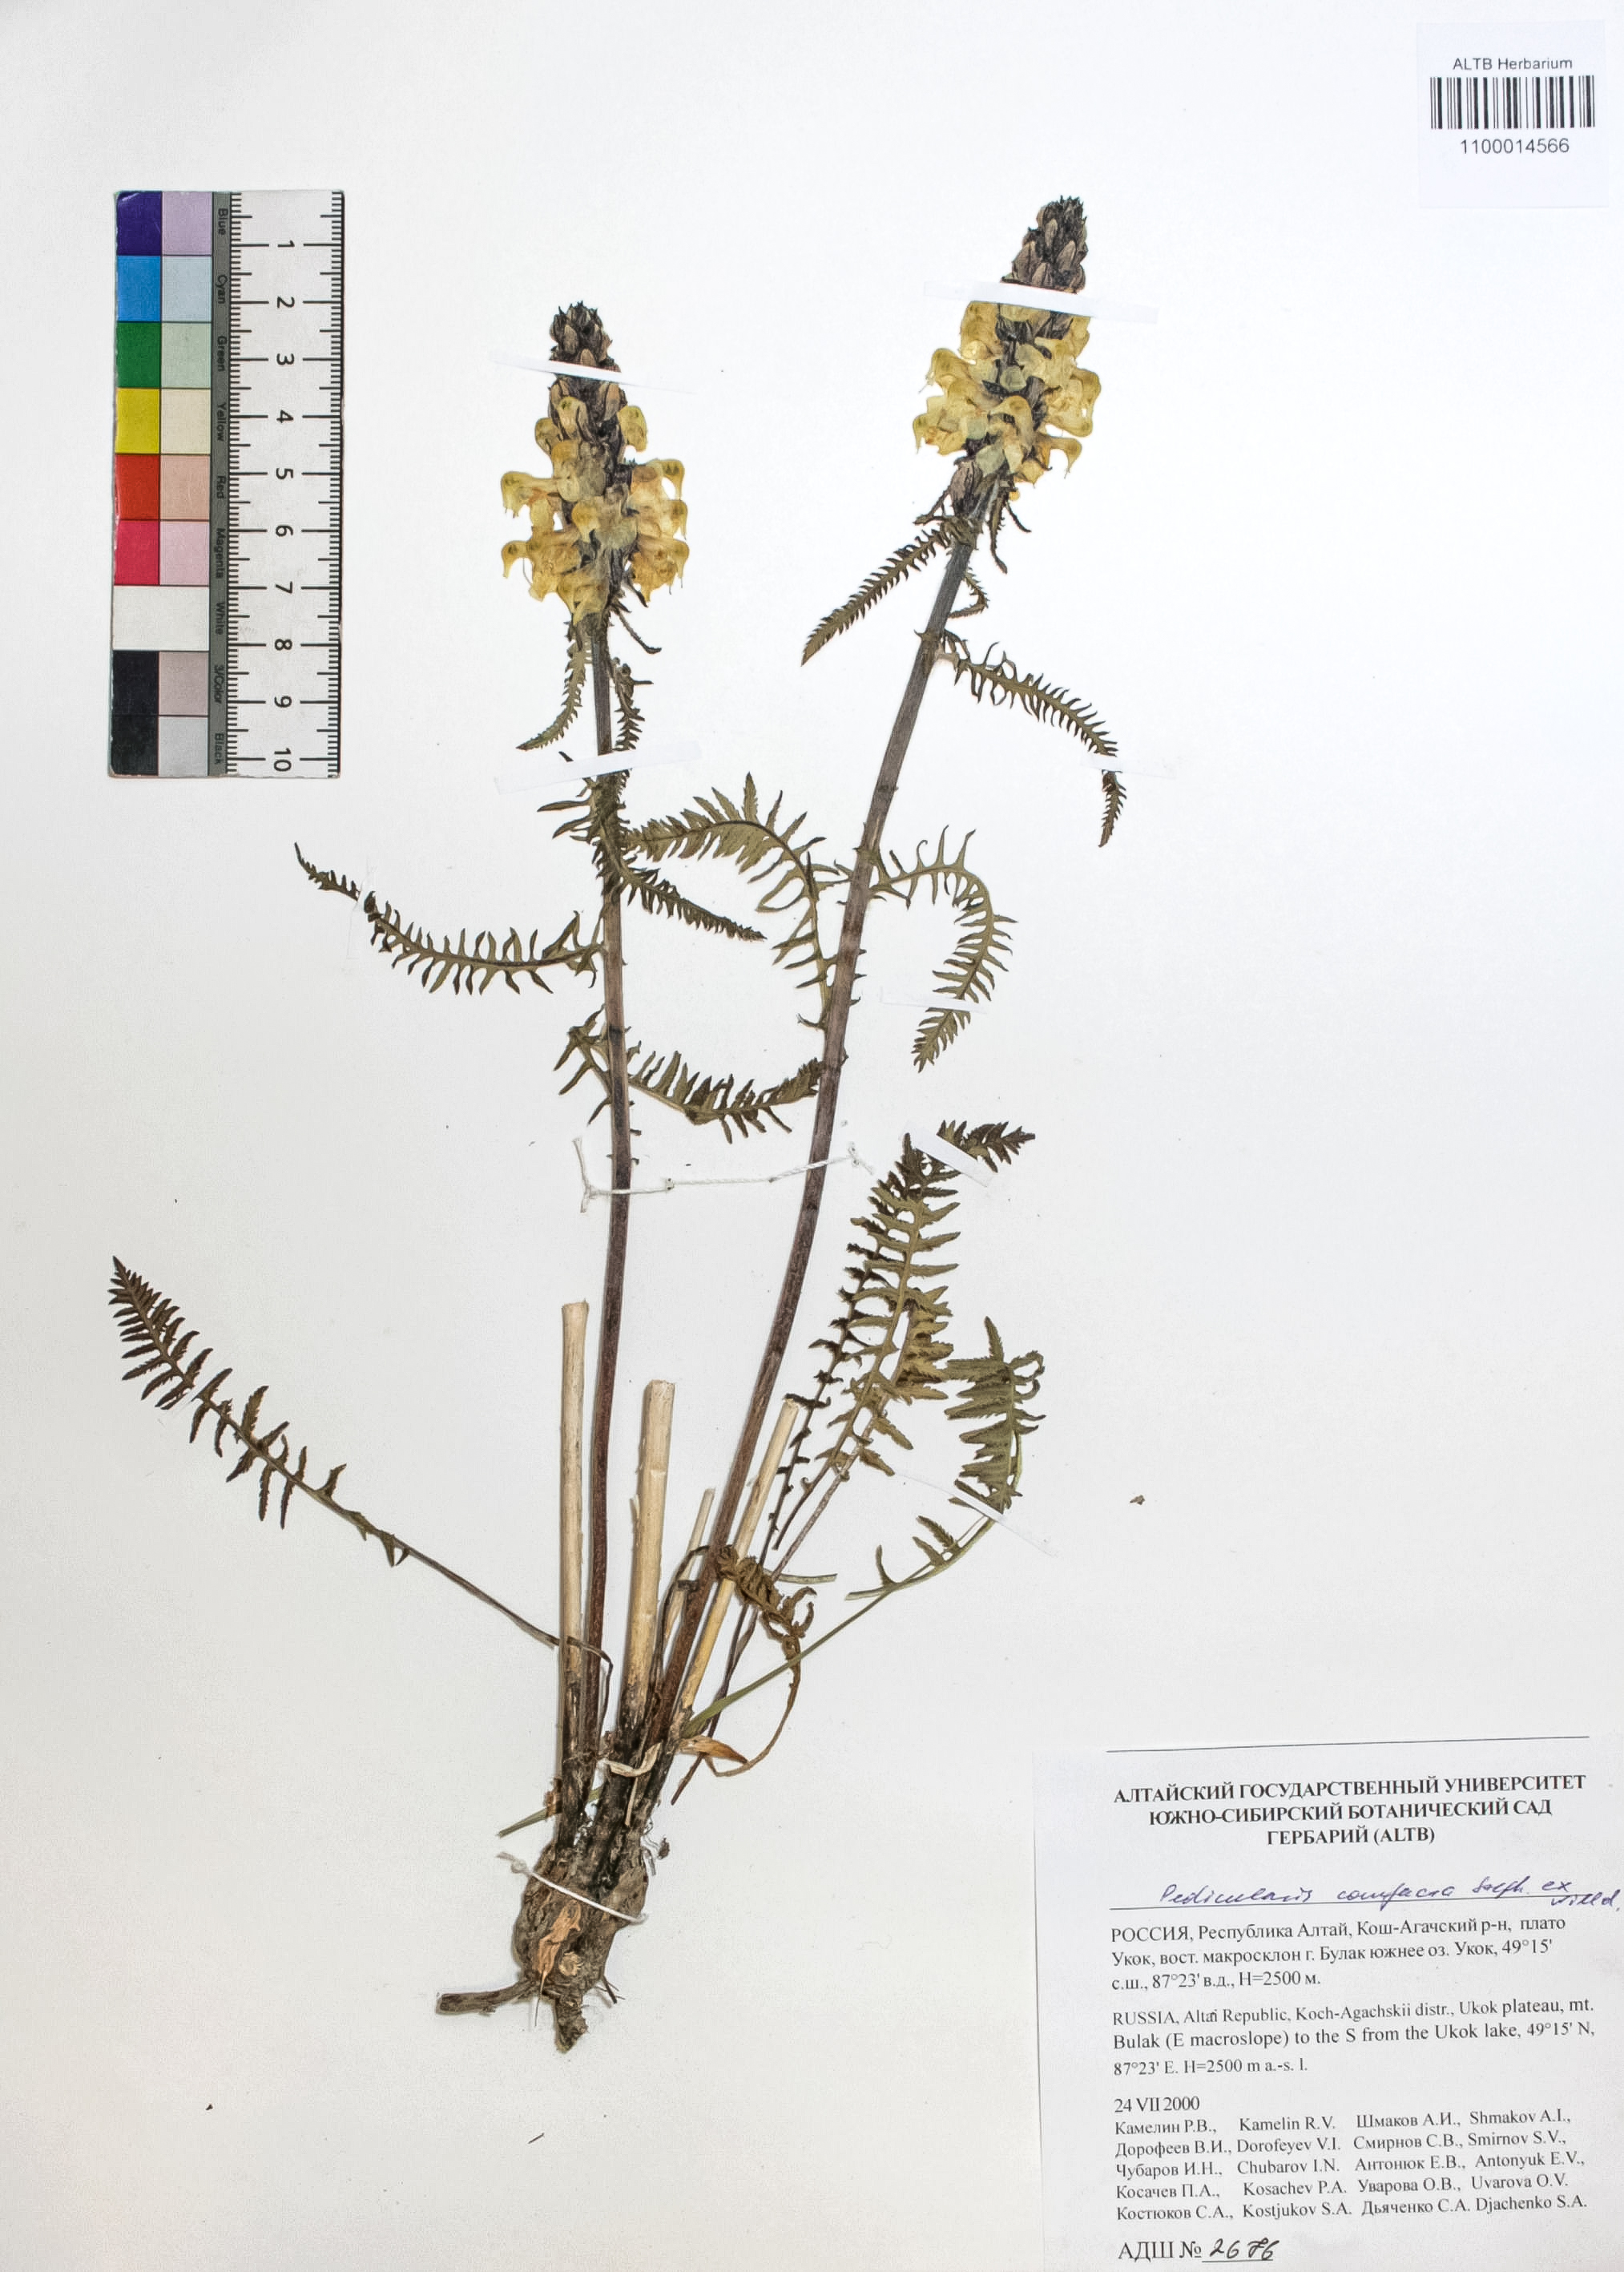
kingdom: Plantae
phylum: Tracheophyta
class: Magnoliopsida
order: Lamiales
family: Orobanchaceae
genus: Pedicularis
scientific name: Pedicularis compacta
